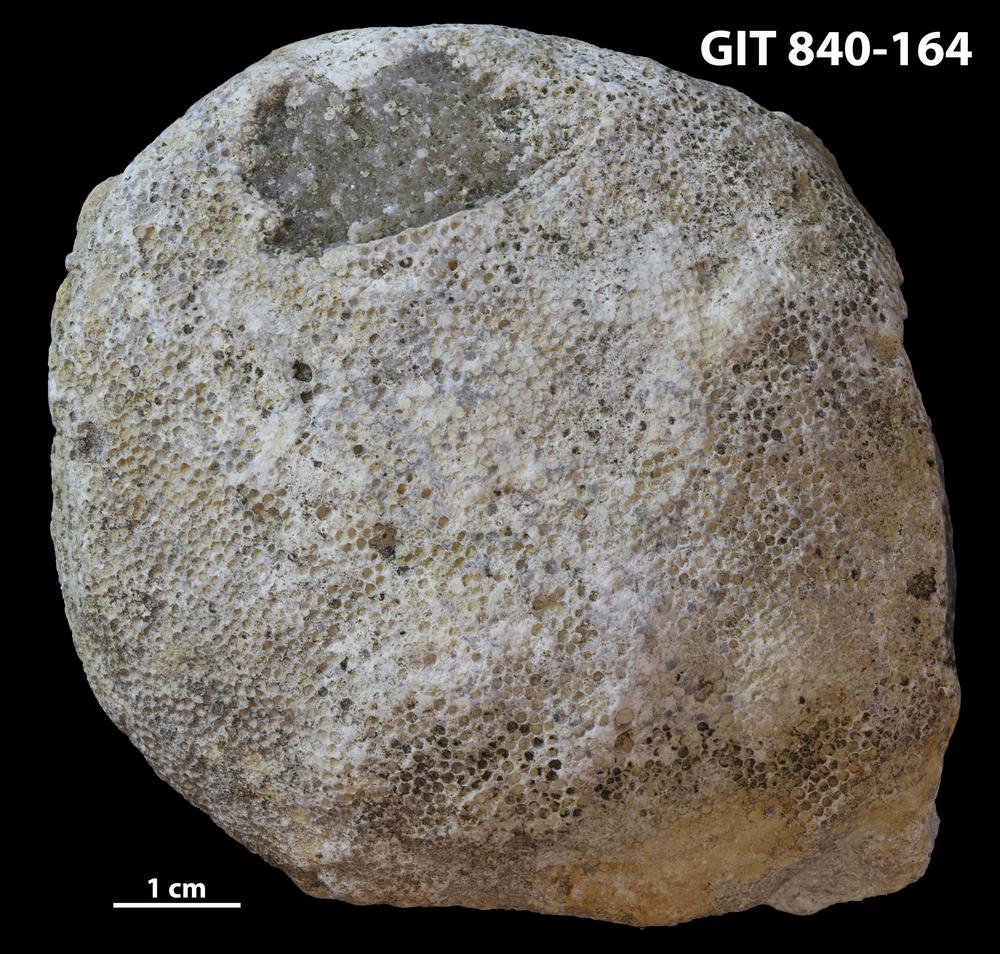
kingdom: Animalia
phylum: Cnidaria
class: Anthozoa
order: Heliolitina
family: Proheliolitidae
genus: Protoheliolites
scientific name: Protoheliolites
